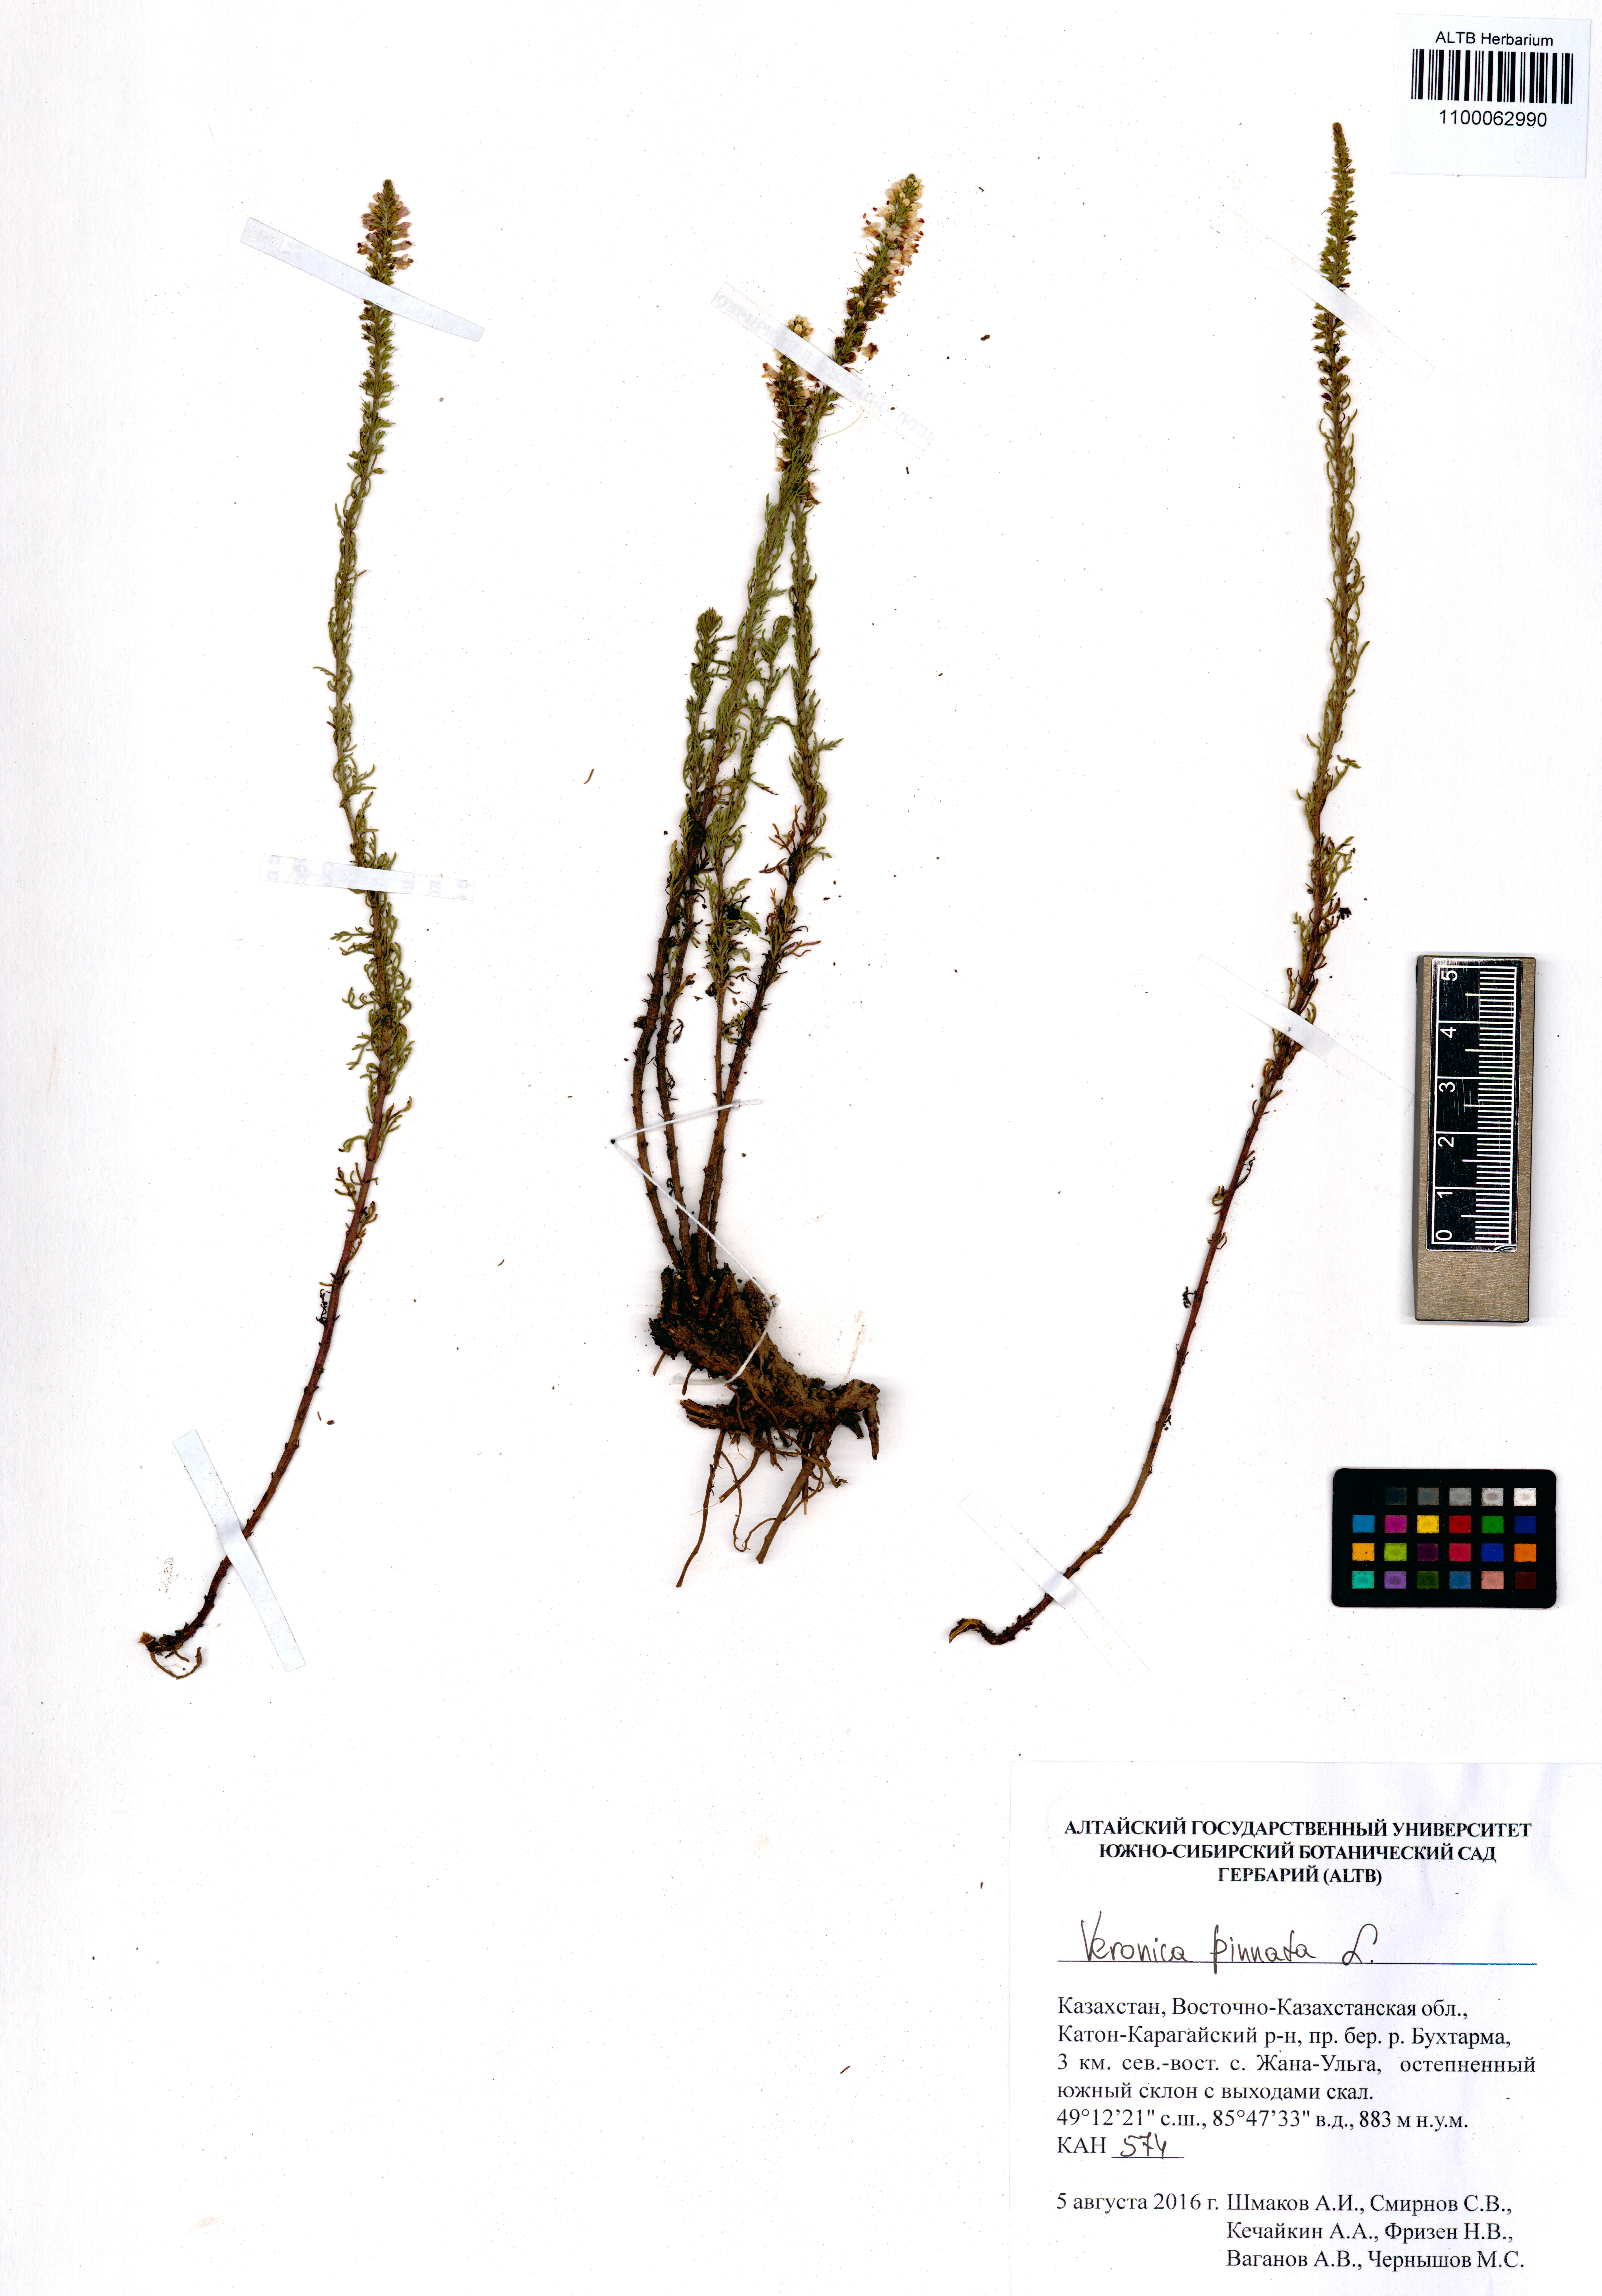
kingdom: Plantae
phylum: Tracheophyta
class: Magnoliopsida
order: Lamiales
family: Plantaginaceae
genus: Veronica
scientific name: Veronica pinnata
